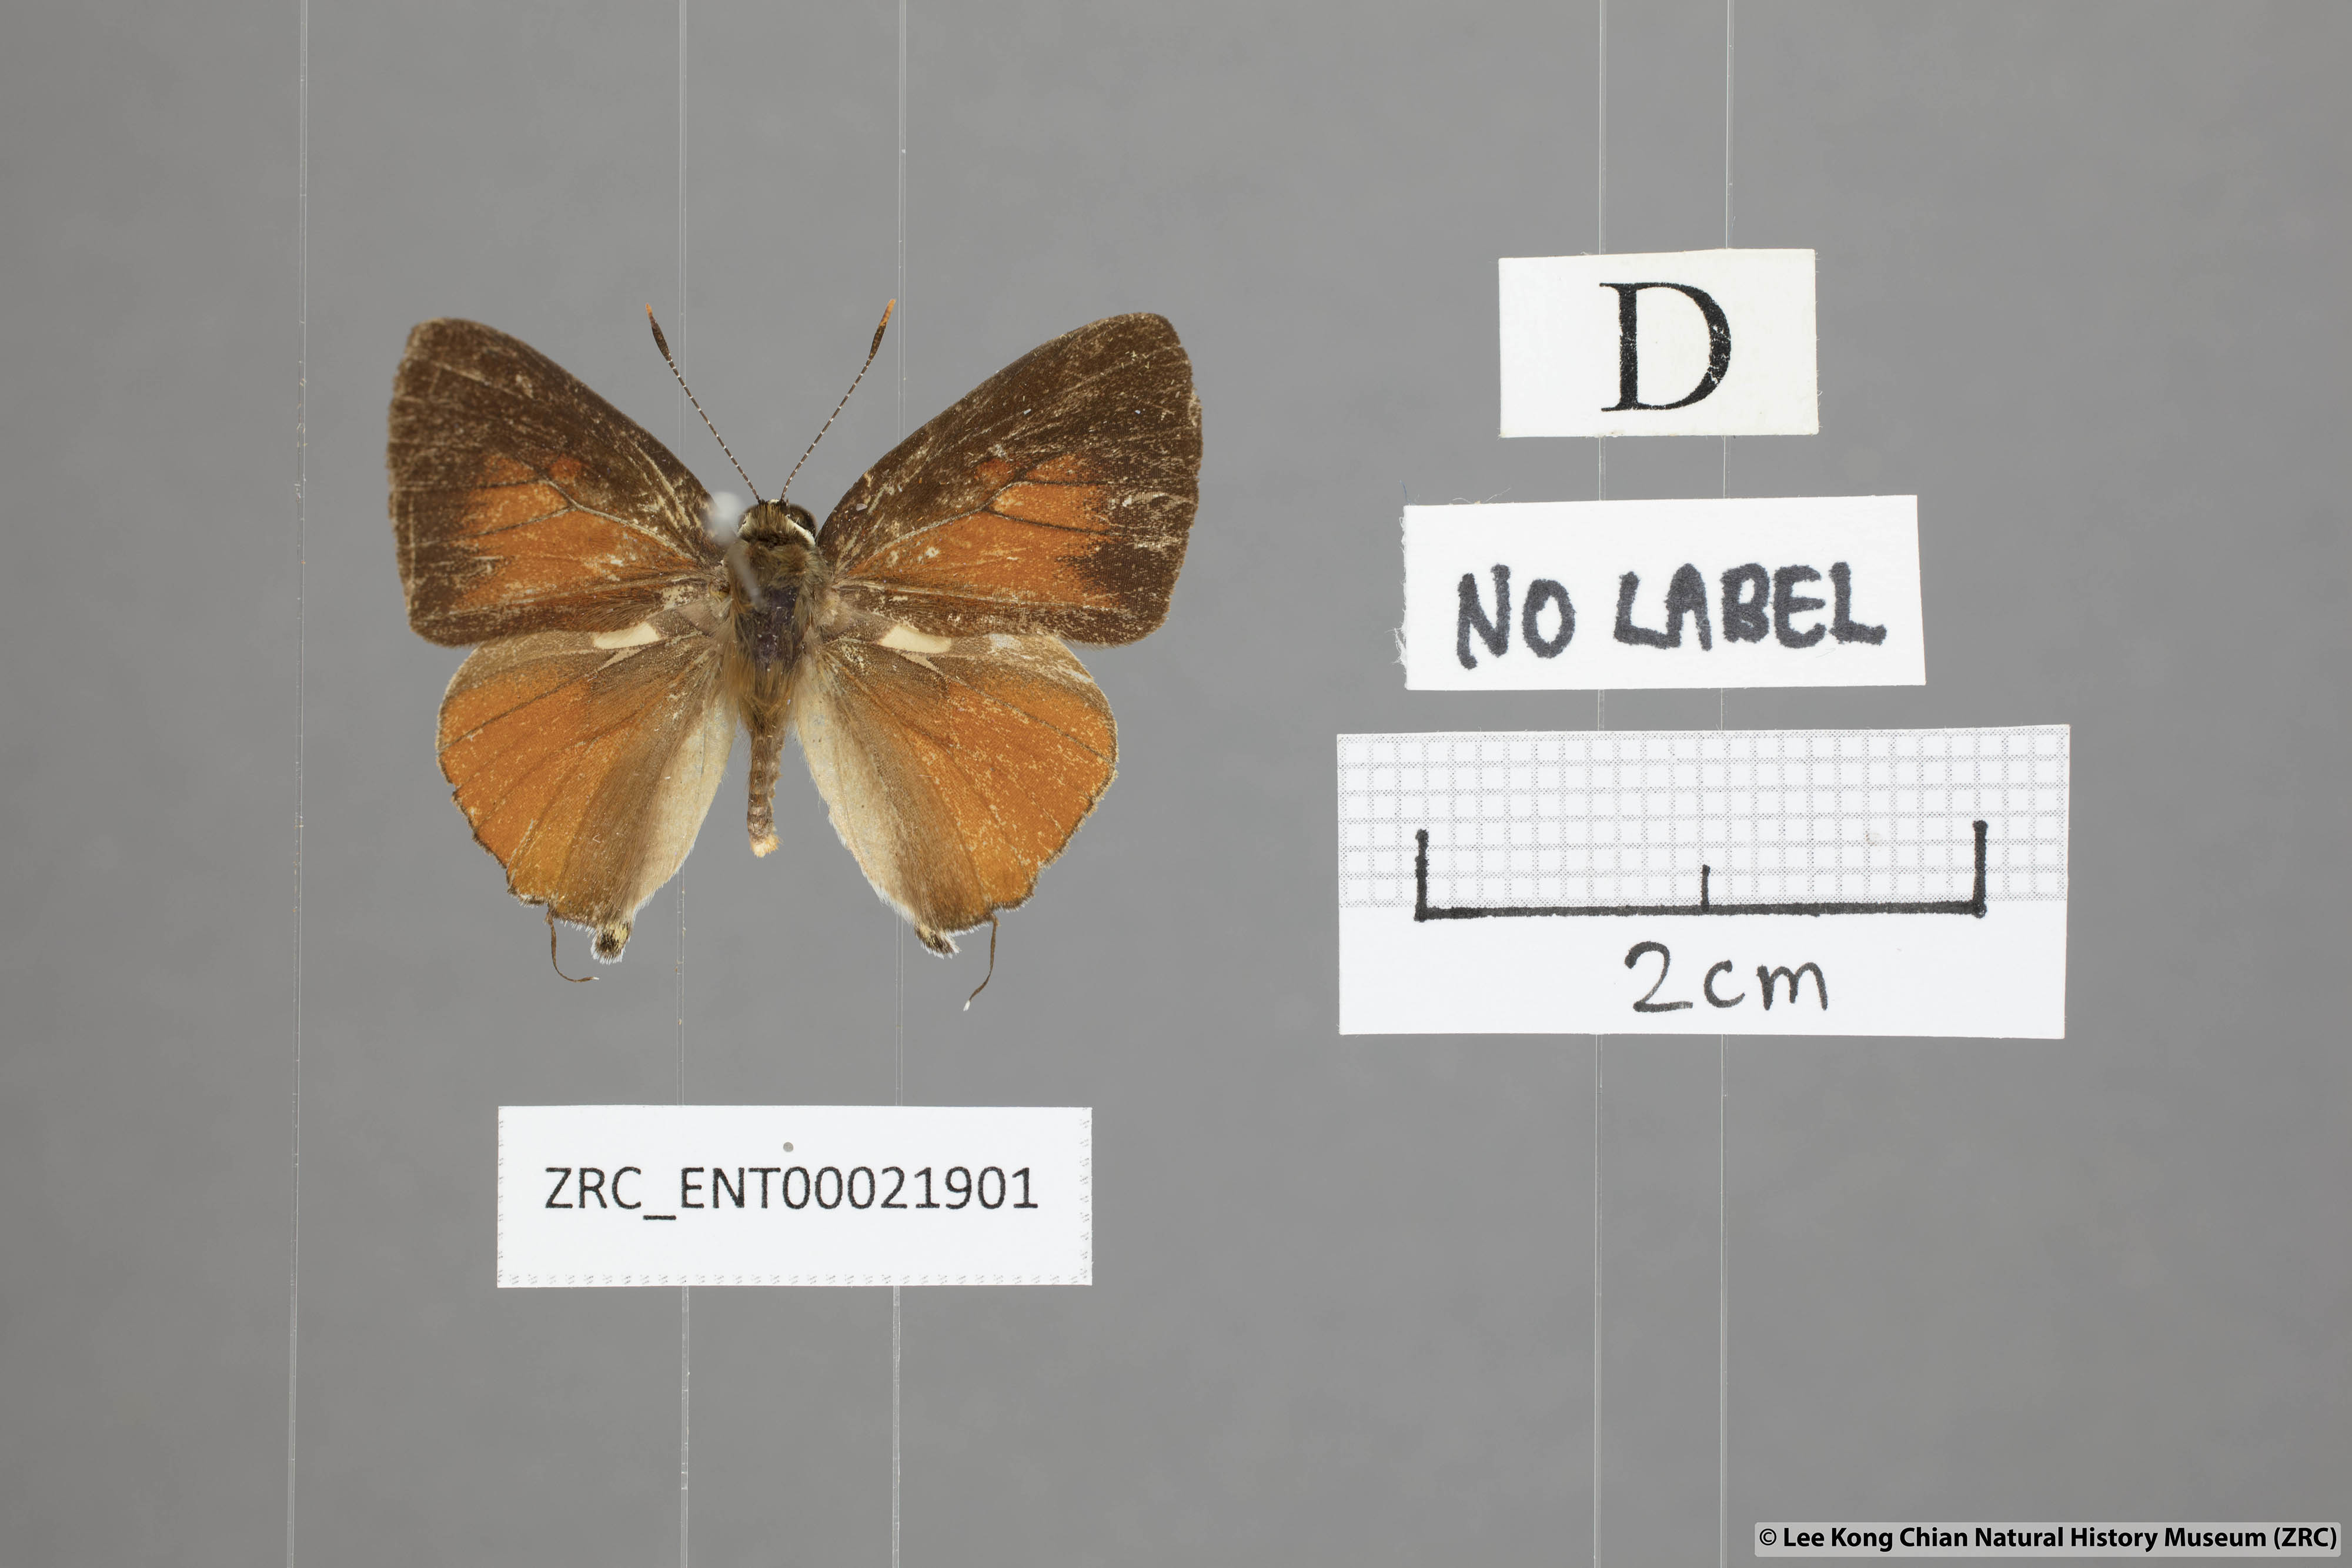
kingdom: Animalia
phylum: Arthropoda
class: Insecta
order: Lepidoptera
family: Lycaenidae
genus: Rapala
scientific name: Rapala suffusa
